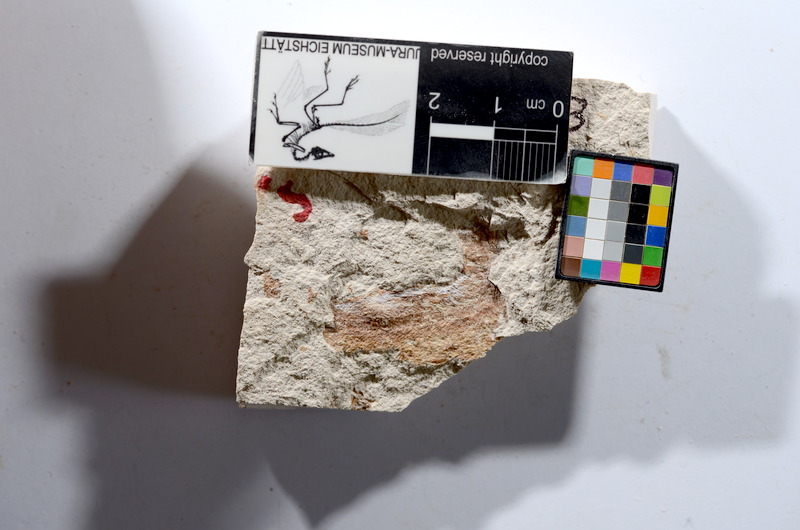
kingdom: Animalia
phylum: Chordata
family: Ascalaboidae
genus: Tharsis
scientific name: Tharsis dubius
